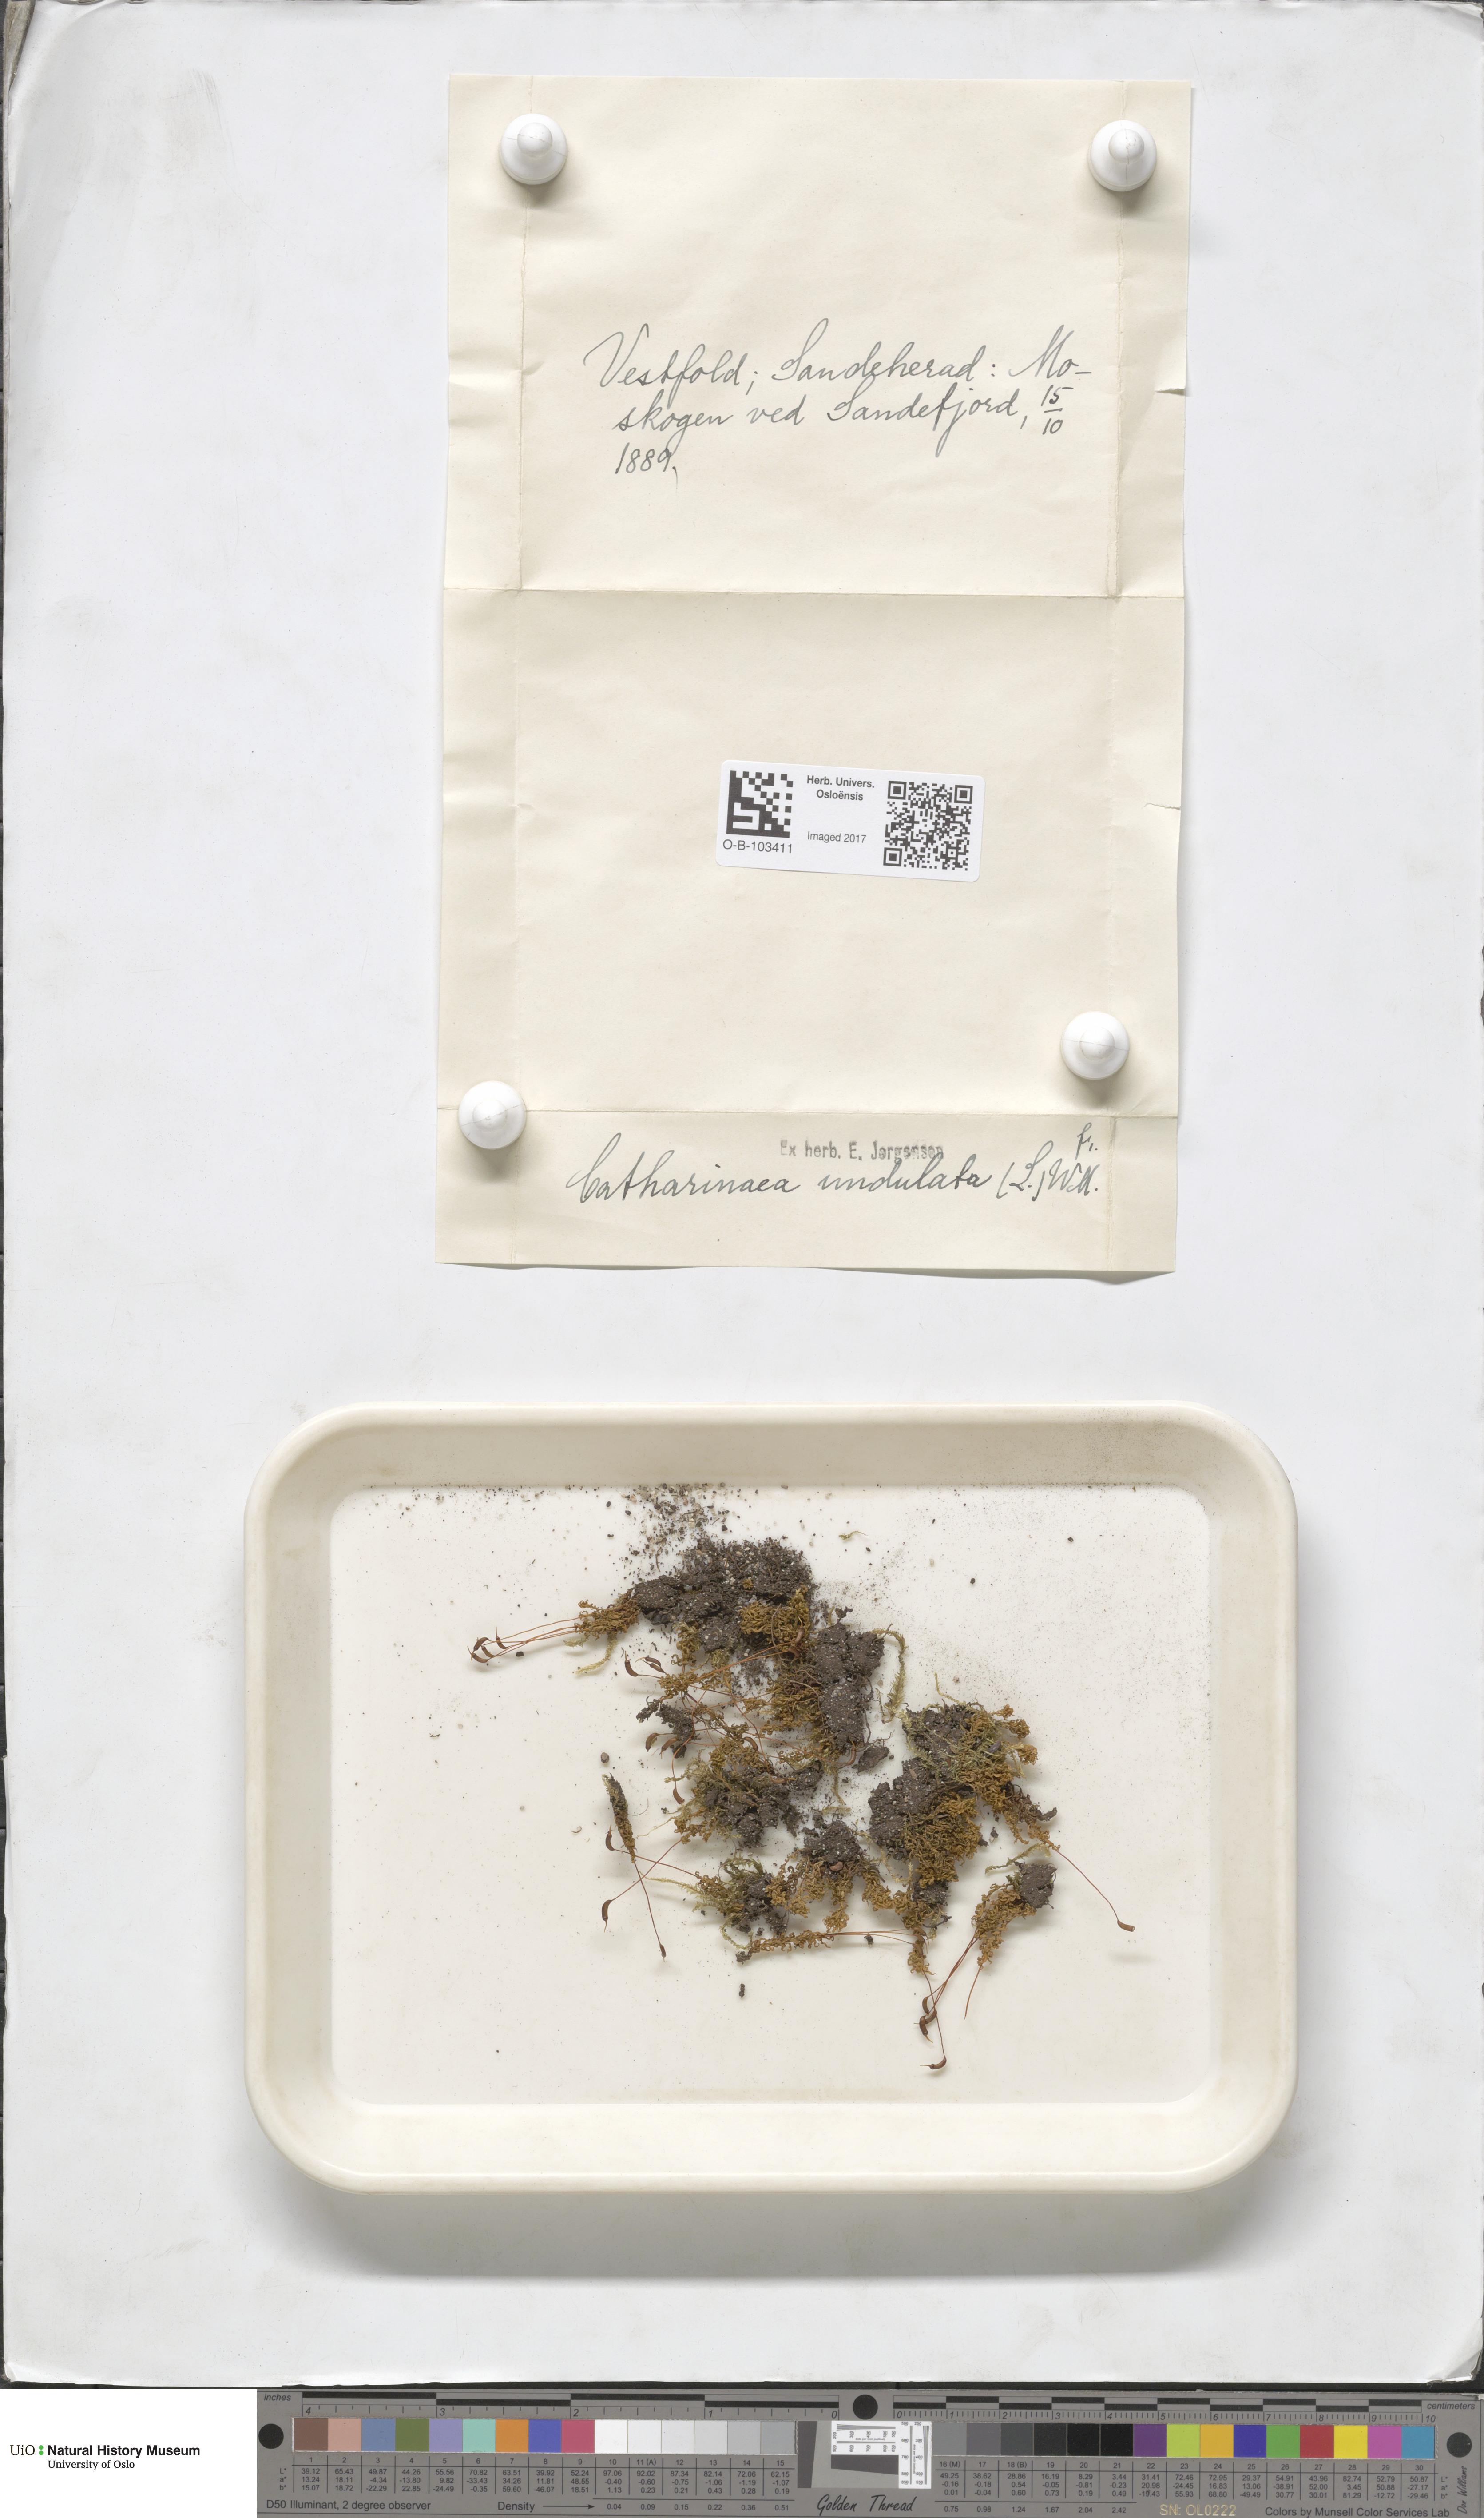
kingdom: Plantae
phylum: Bryophyta
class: Polytrichopsida
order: Polytrichales
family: Polytrichaceae
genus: Atrichum
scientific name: Atrichum undulatum
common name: Common smoothcap
